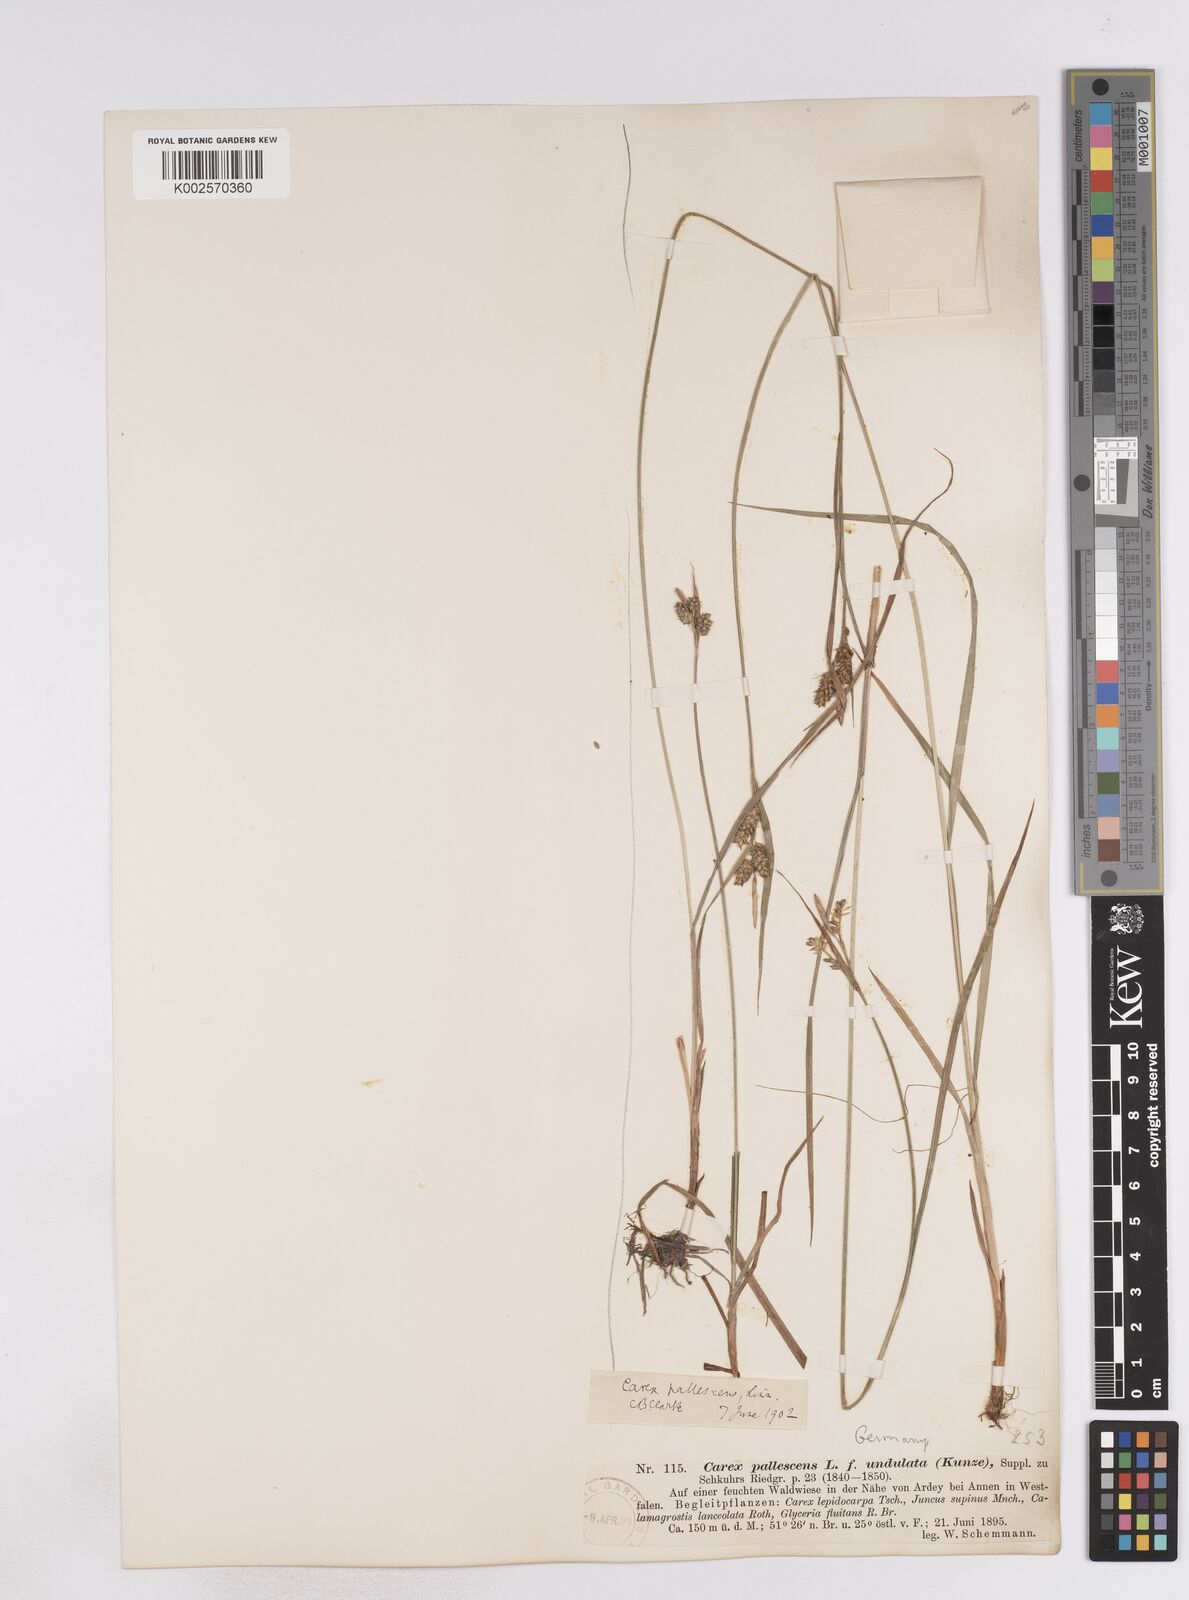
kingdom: Plantae
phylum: Tracheophyta
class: Liliopsida
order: Poales
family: Cyperaceae
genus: Carex
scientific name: Carex pallescens
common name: Pale sedge
